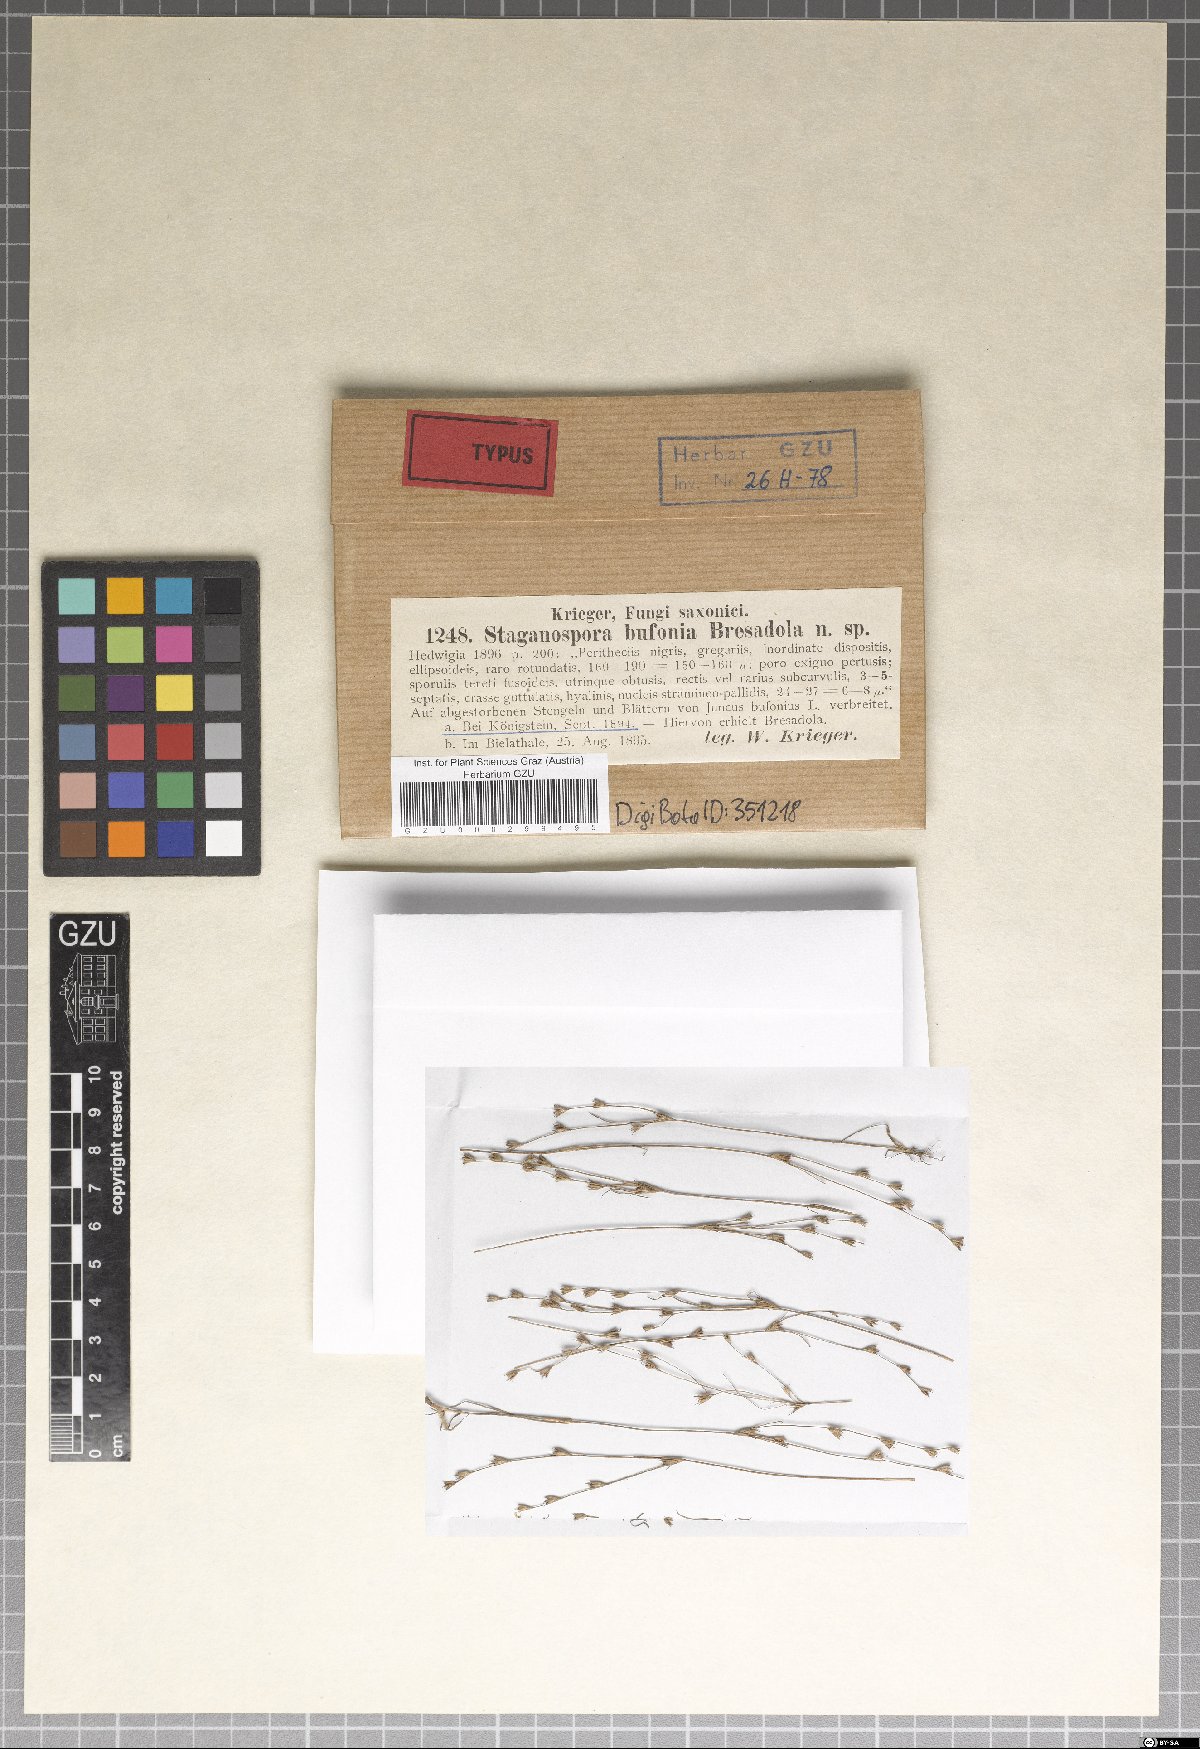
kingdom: Fungi
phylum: Ascomycota
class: Dothideomycetes
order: Pleosporales
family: Phaeosphaeriaceae
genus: Stagonospora
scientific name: Stagonospora bufonia
